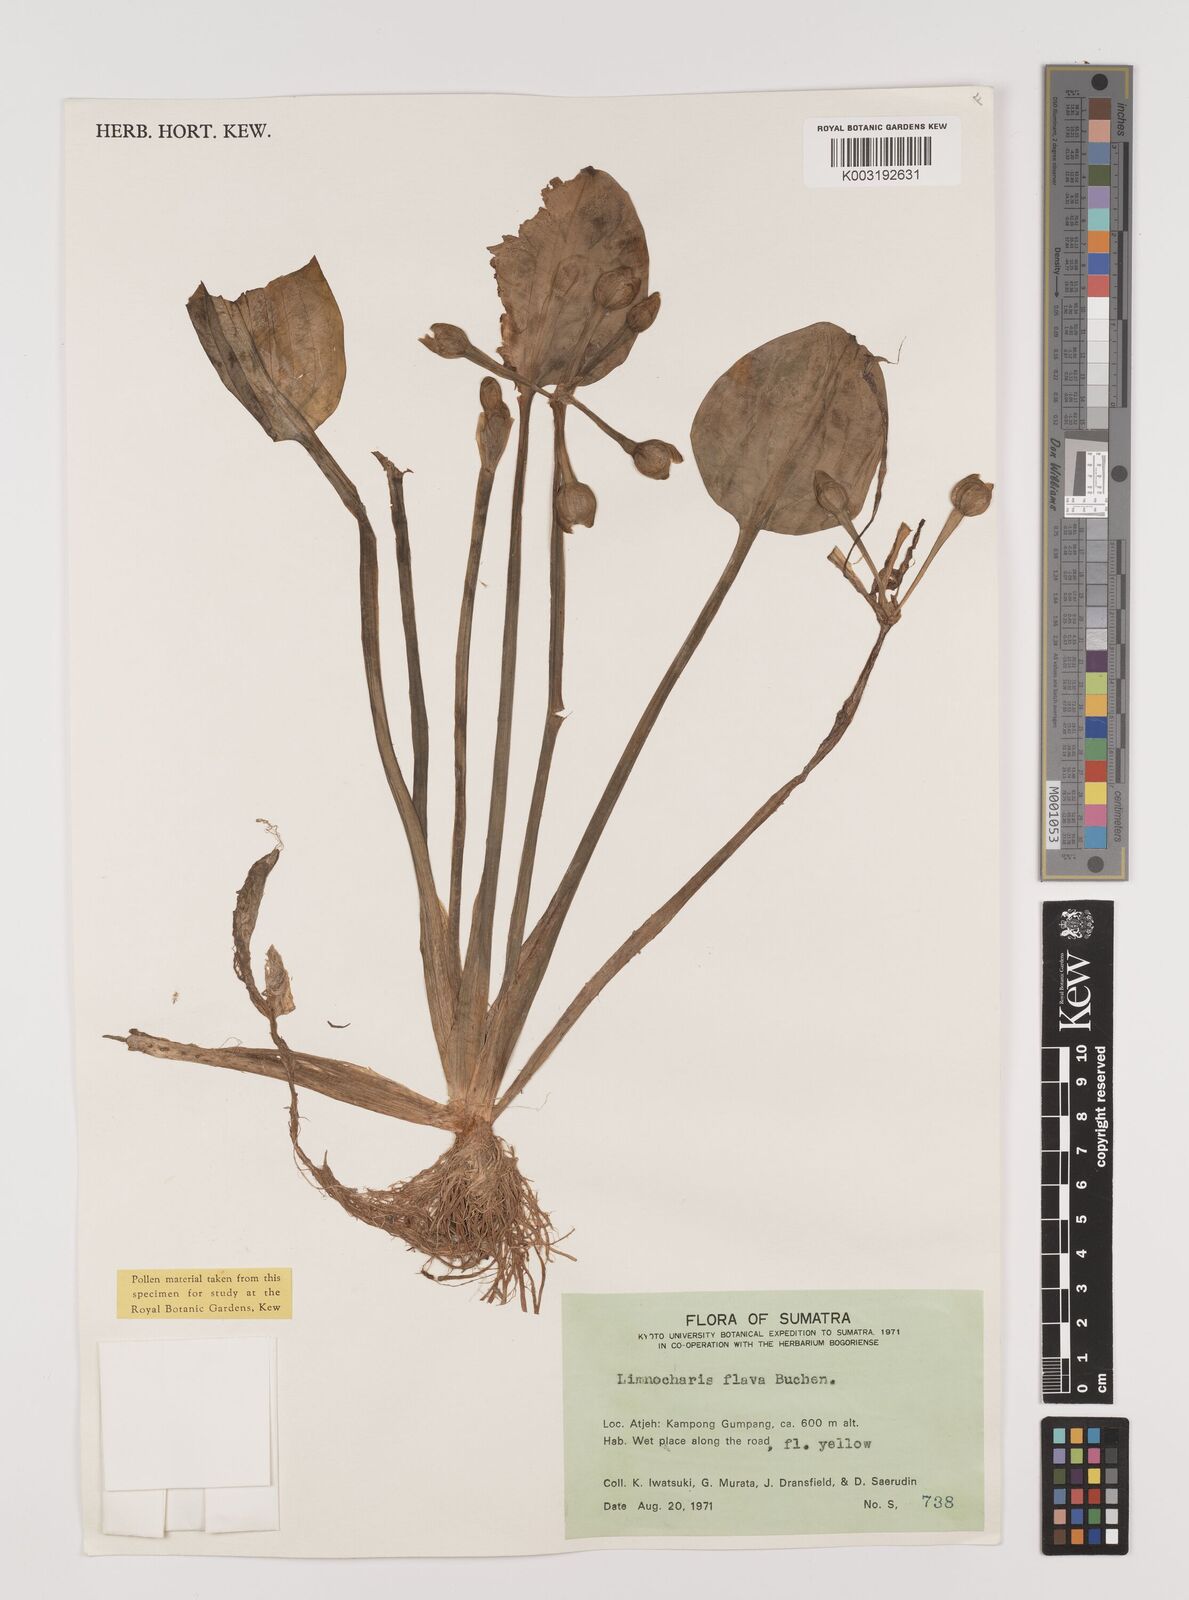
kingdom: Plantae
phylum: Tracheophyta
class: Liliopsida
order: Alismatales
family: Alismataceae
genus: Limnocharis
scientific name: Limnocharis flava
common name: Sawah-flower-rush
